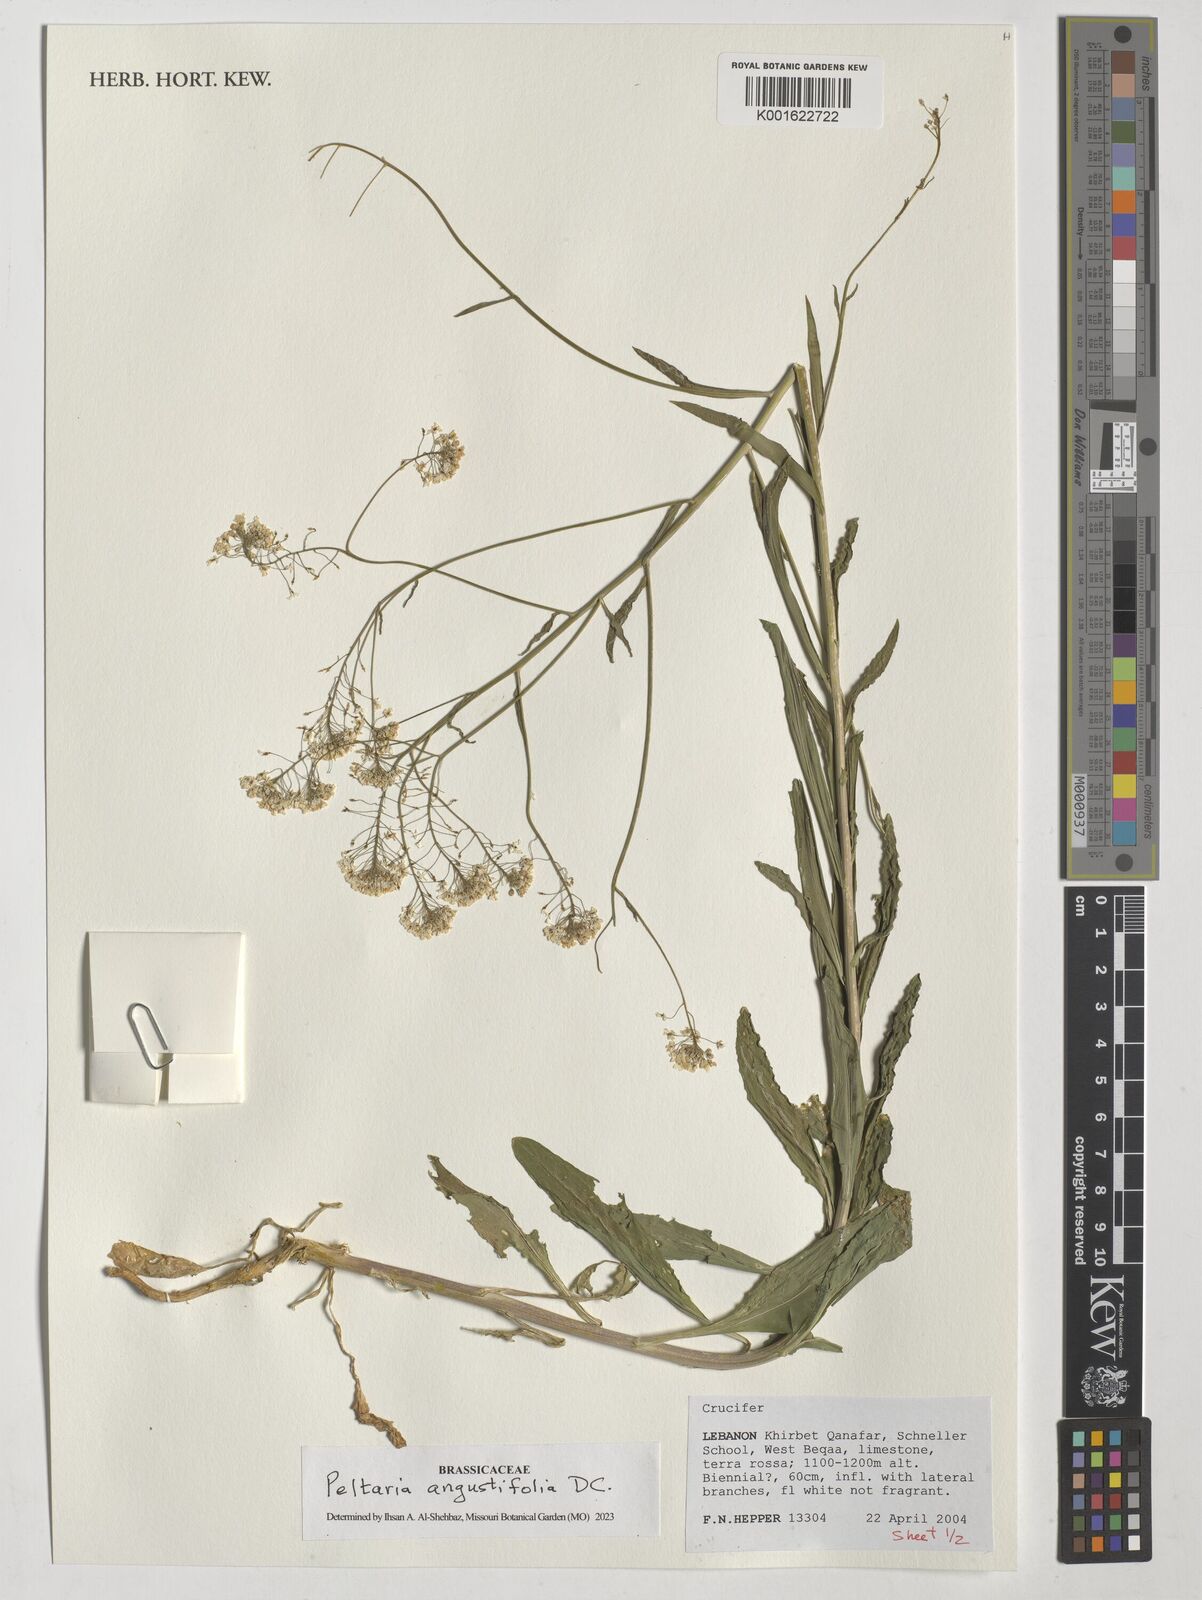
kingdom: Plantae
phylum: Tracheophyta
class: Magnoliopsida
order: Brassicales
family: Brassicaceae
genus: Peltaria
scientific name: Peltaria angustifolia
